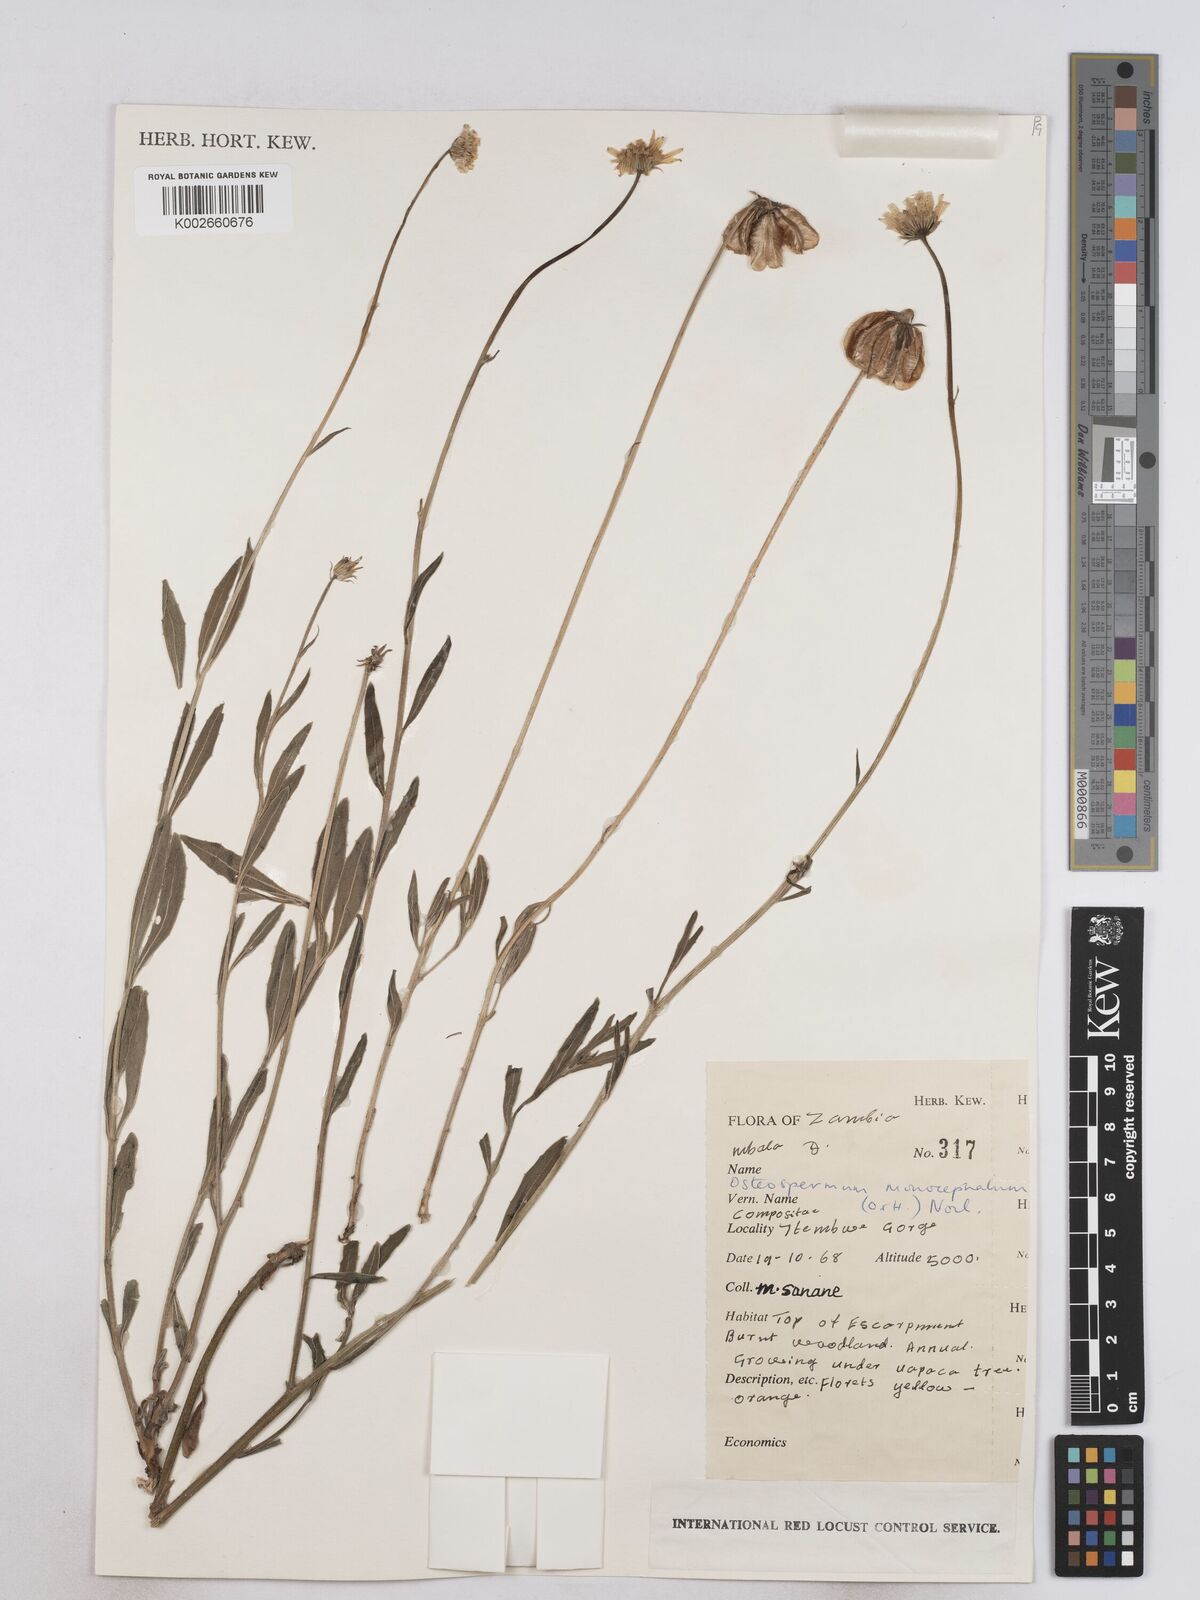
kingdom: Plantae
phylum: Tracheophyta
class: Magnoliopsida
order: Asterales
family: Asteraceae
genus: Osteospermum
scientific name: Osteospermum monocephalum
